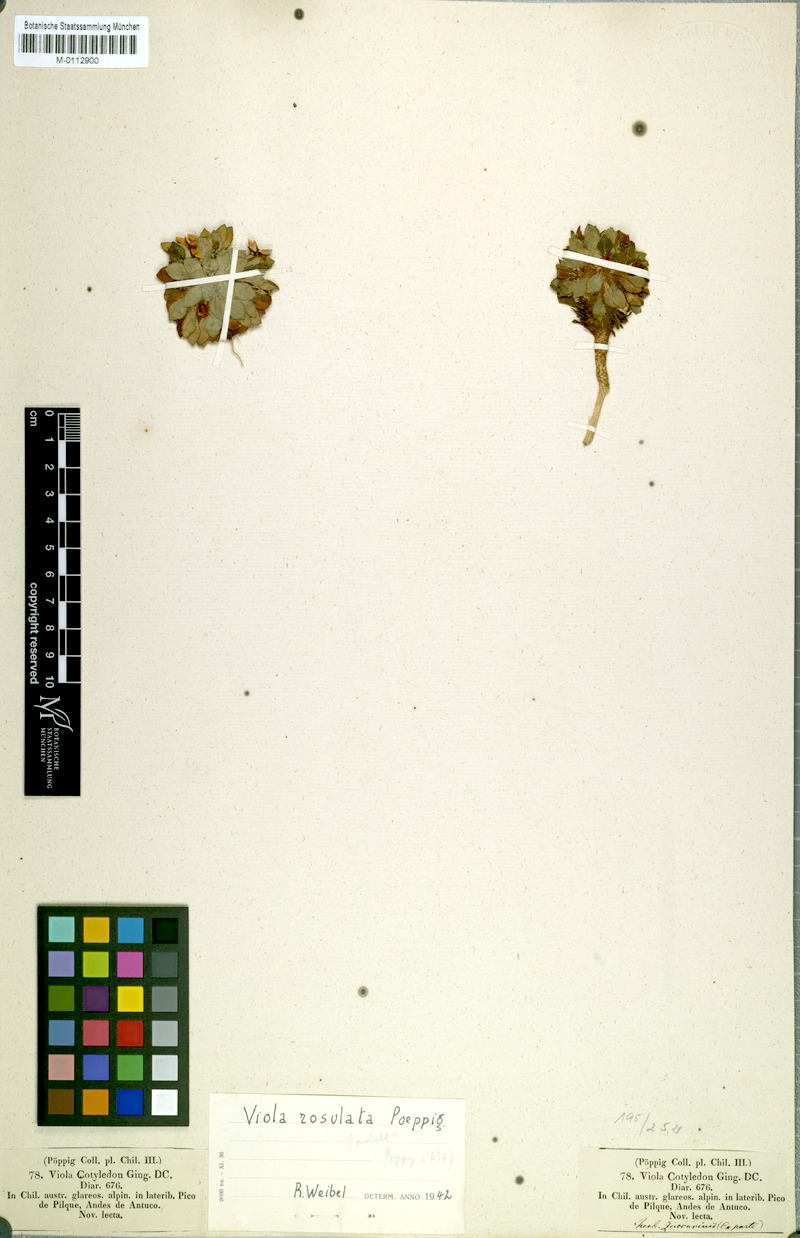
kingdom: Plantae
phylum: Tracheophyta
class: Magnoliopsida
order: Malpighiales
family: Violaceae
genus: Viola
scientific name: Viola rosulata
